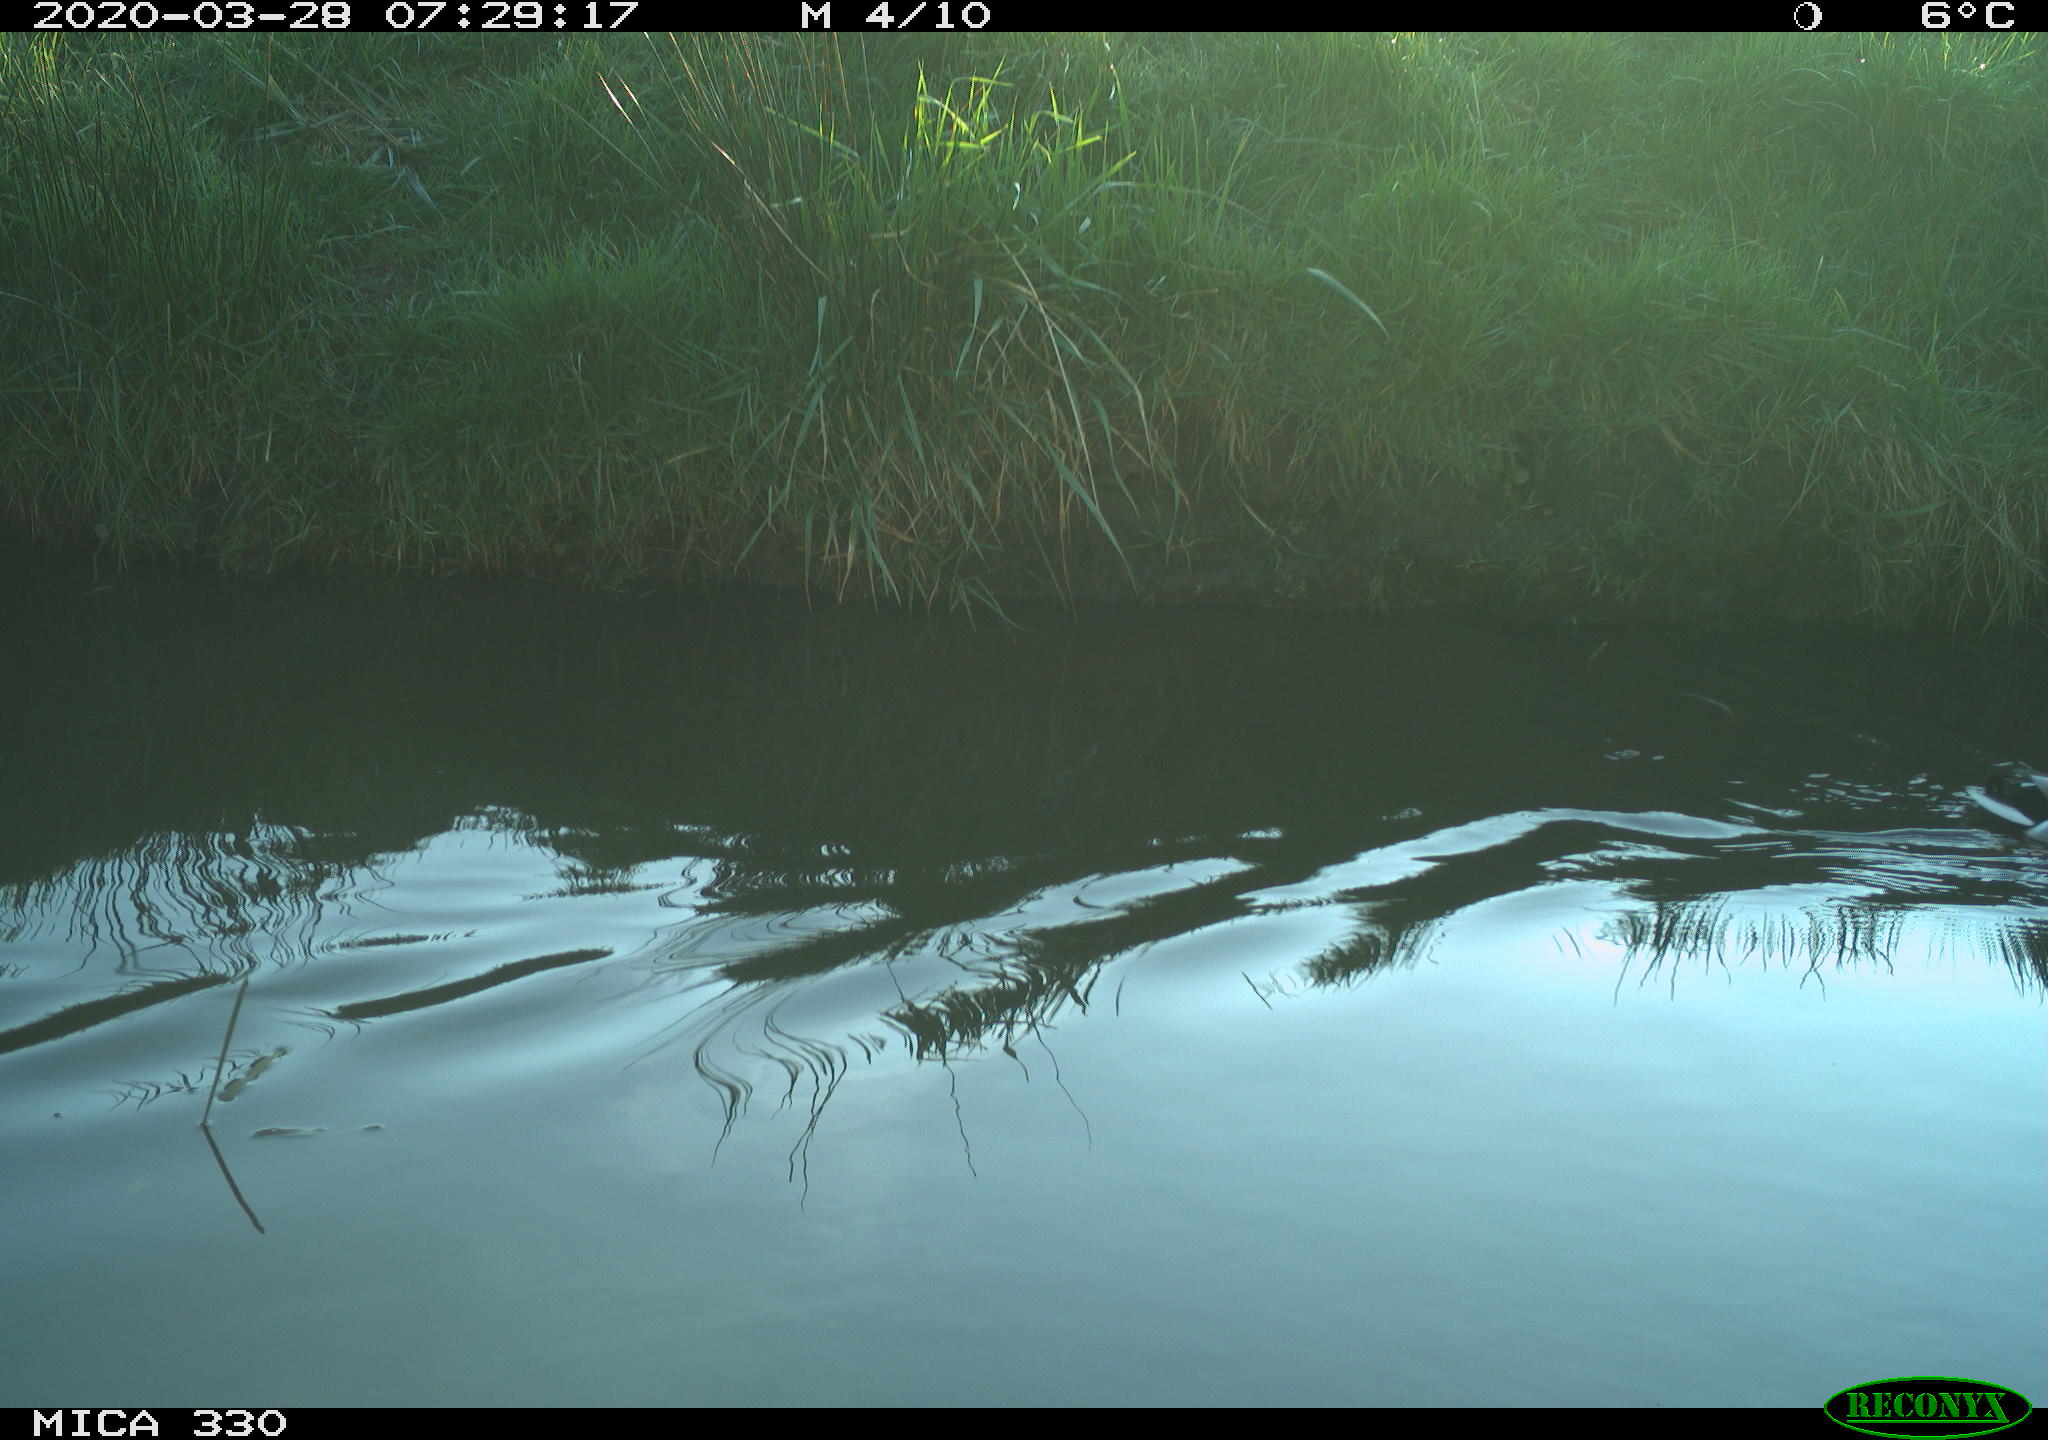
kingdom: Animalia
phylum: Chordata
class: Aves
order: Anseriformes
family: Anatidae
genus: Anas
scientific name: Anas platyrhynchos
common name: Mallard
